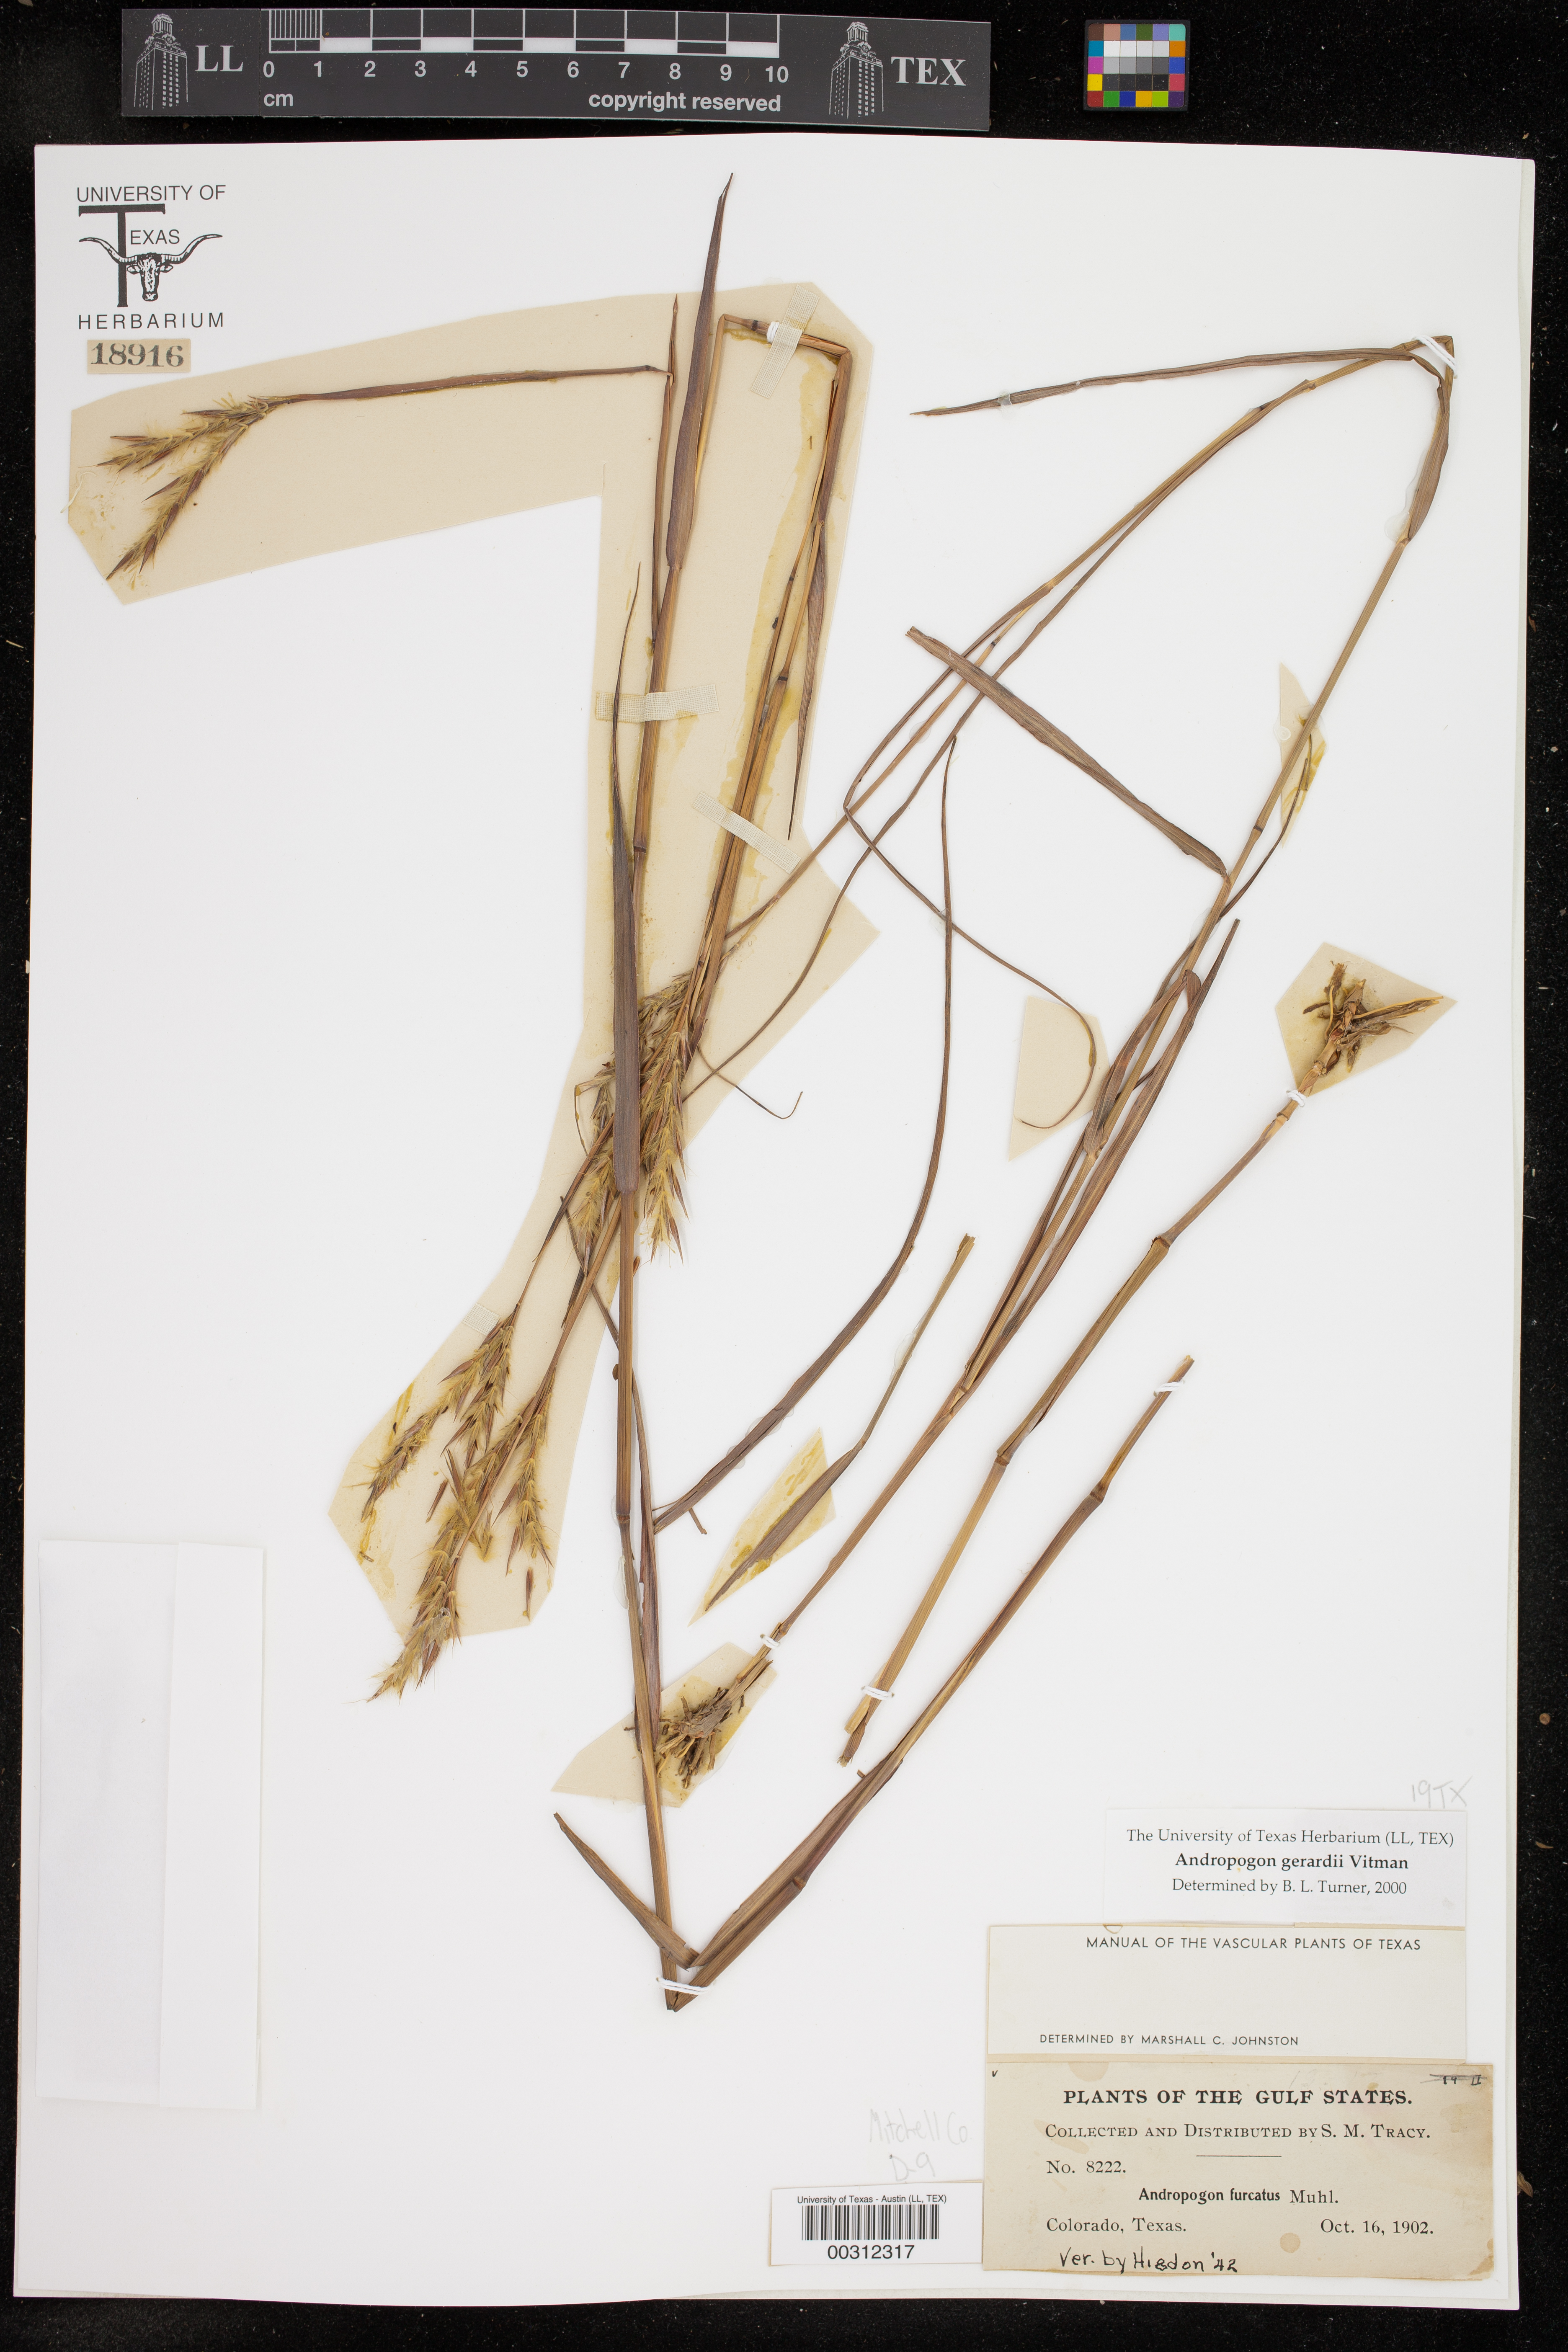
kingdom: Plantae
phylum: Tracheophyta
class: Liliopsida
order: Poales
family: Poaceae
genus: Andropogon
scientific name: Andropogon gerardi
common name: Big bluestem
